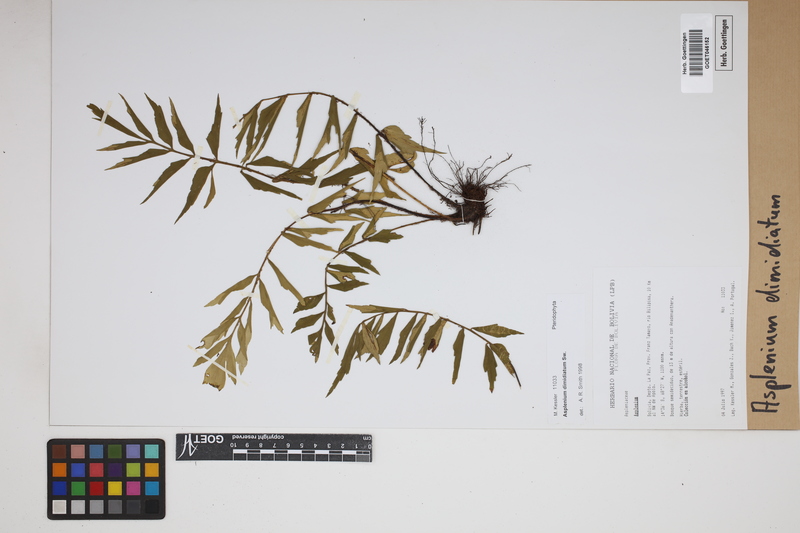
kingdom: Plantae
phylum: Tracheophyta
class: Polypodiopsida
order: Polypodiales
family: Aspleniaceae
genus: Asplenium
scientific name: Asplenium dimidiatum
